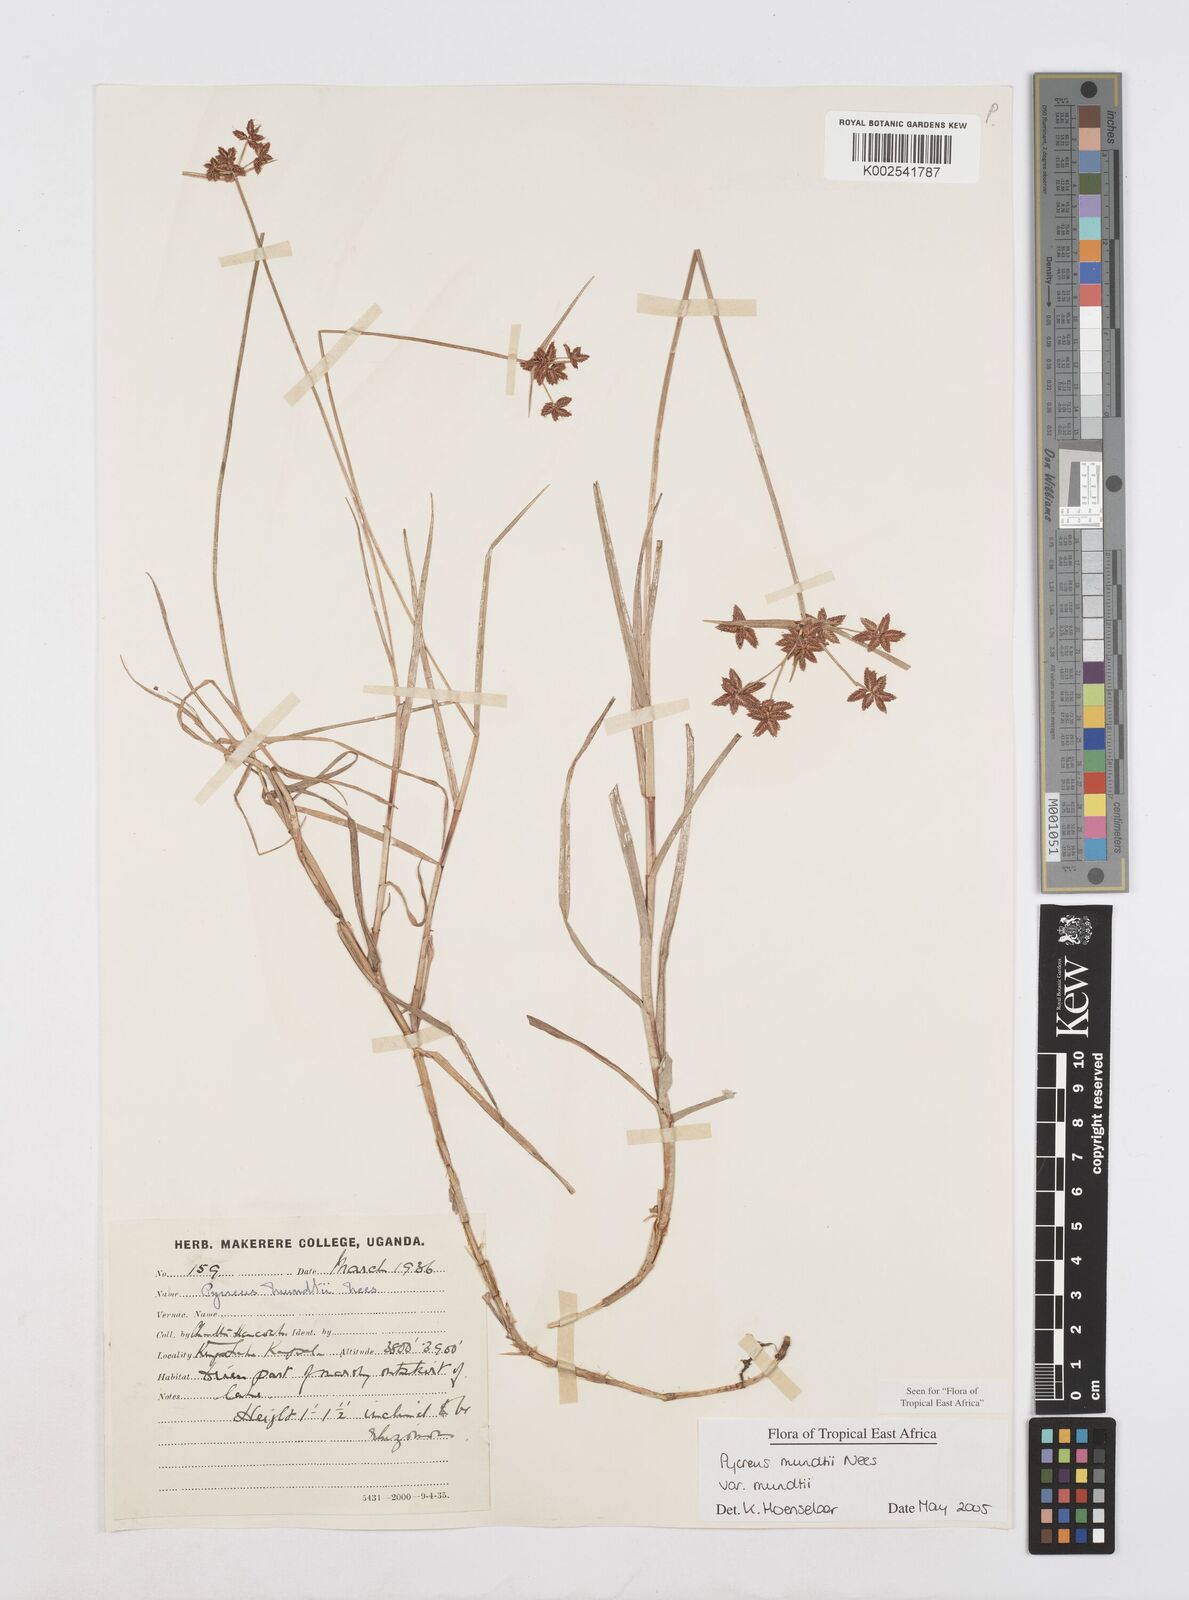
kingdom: Plantae
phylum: Tracheophyta
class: Liliopsida
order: Poales
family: Cyperaceae
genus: Cyperus
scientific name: Cyperus mundii
